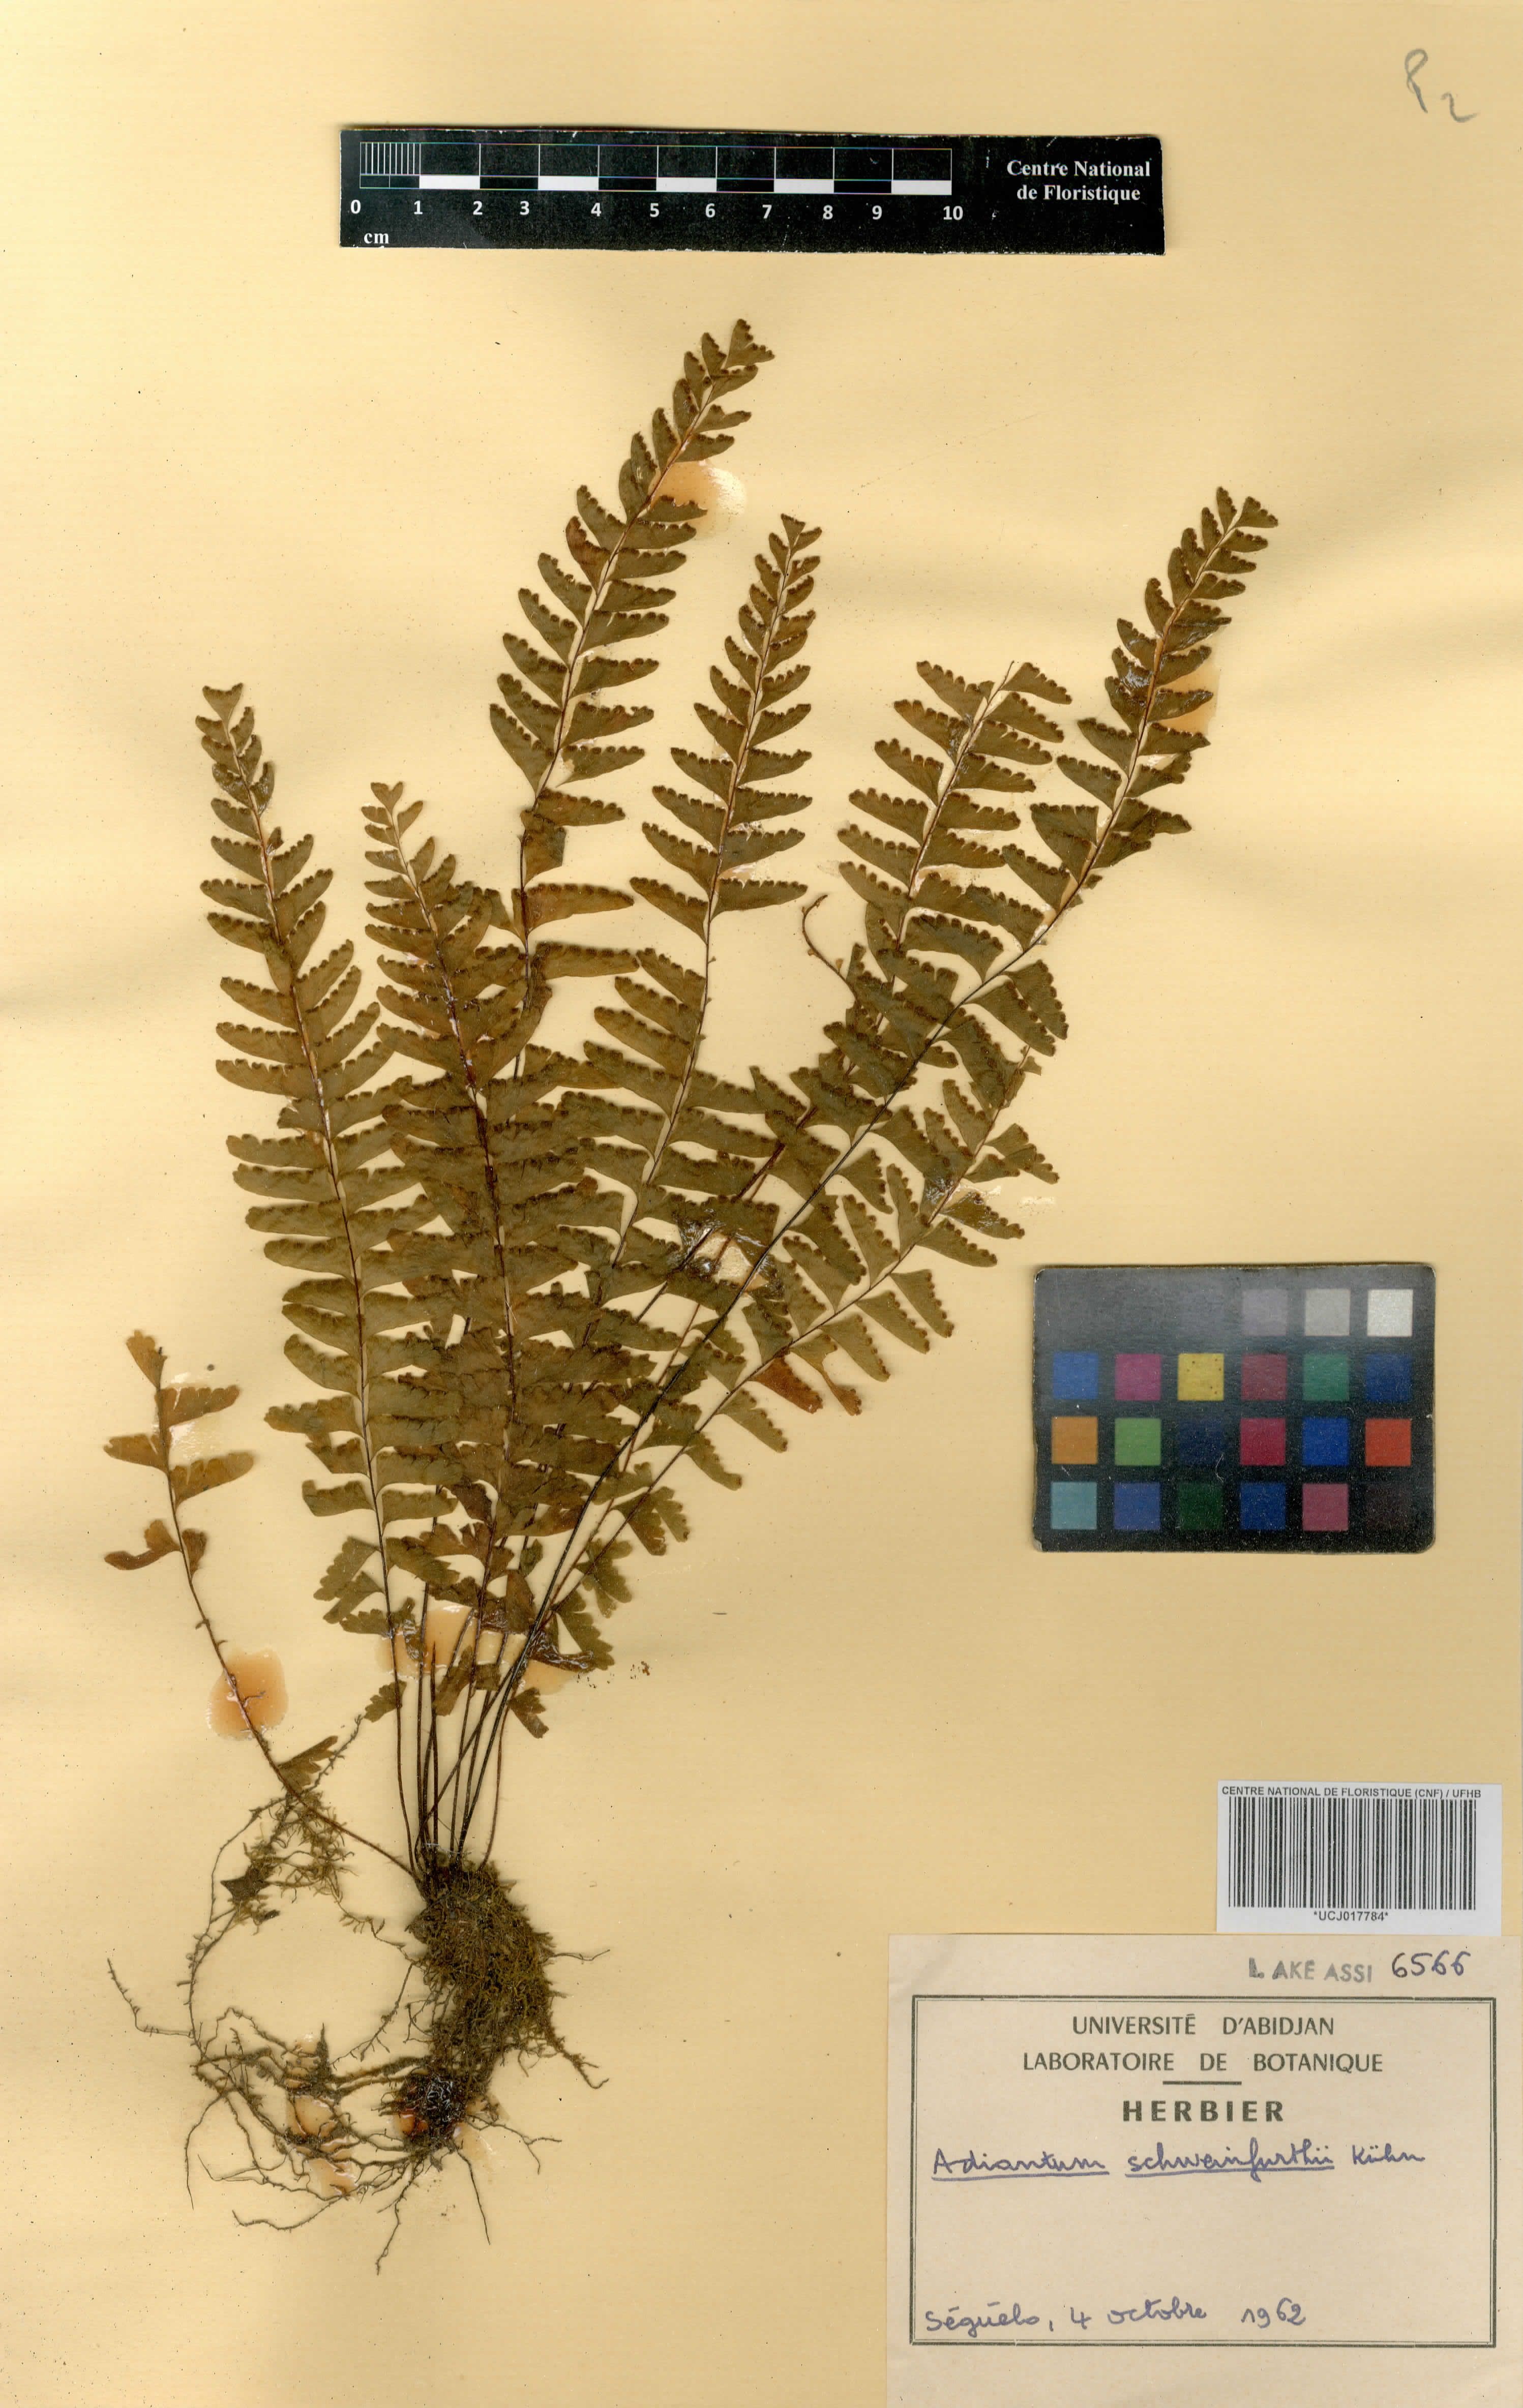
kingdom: Plantae
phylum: Tracheophyta
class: Polypodiopsida
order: Polypodiales
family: Pteridaceae
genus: Adiantum
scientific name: Adiantum schweinfurthii
